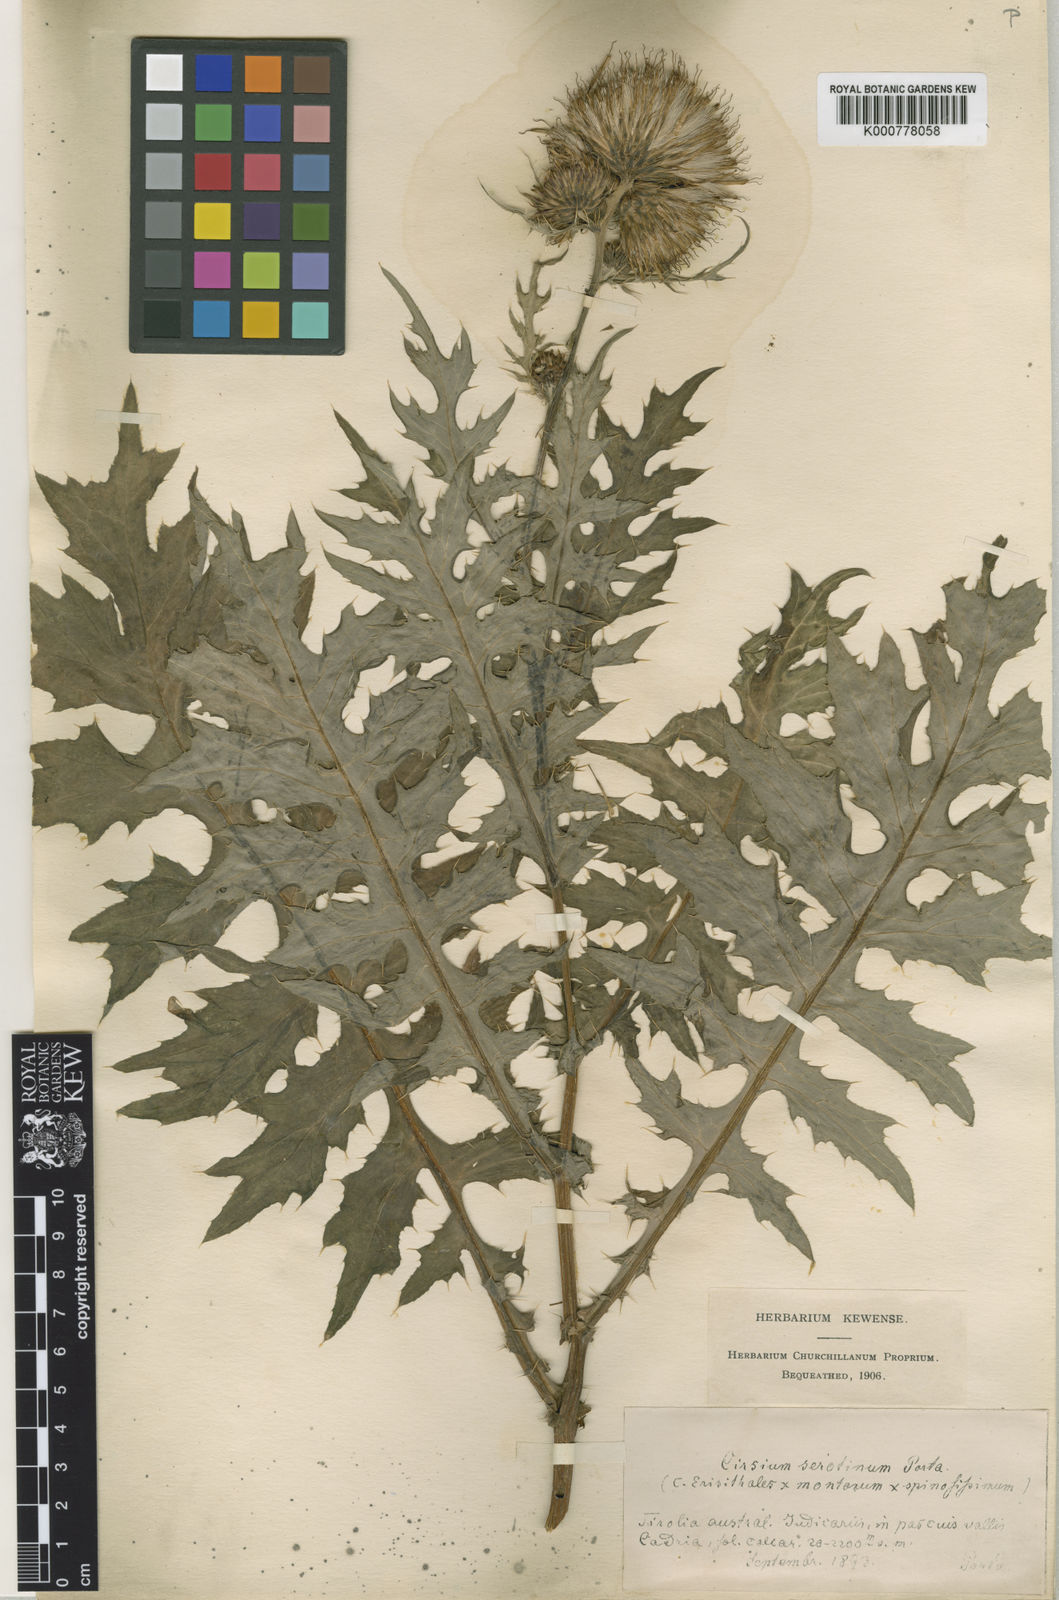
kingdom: Plantae
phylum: Tracheophyta
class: Magnoliopsida
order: Asterales
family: Asteraceae
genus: Cirsium
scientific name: Cirsium
